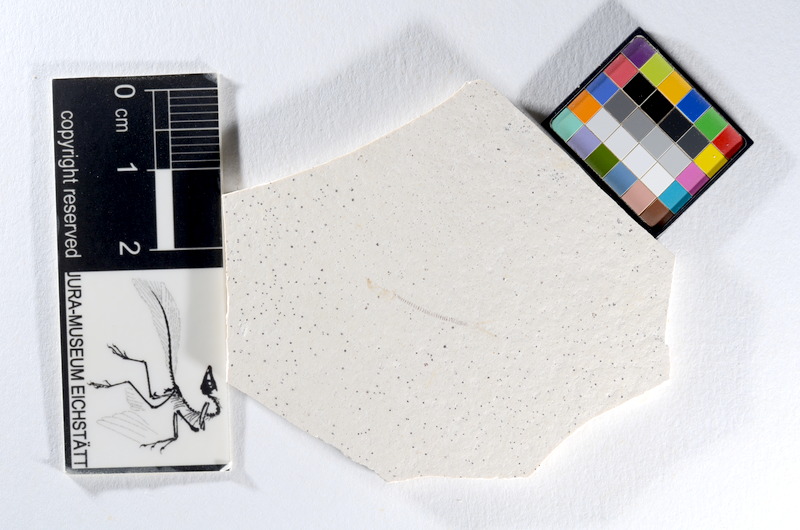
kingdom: Animalia
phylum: Chordata
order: Salmoniformes
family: Orthogonikleithridae
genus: Orthogonikleithrus
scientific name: Orthogonikleithrus hoelli
